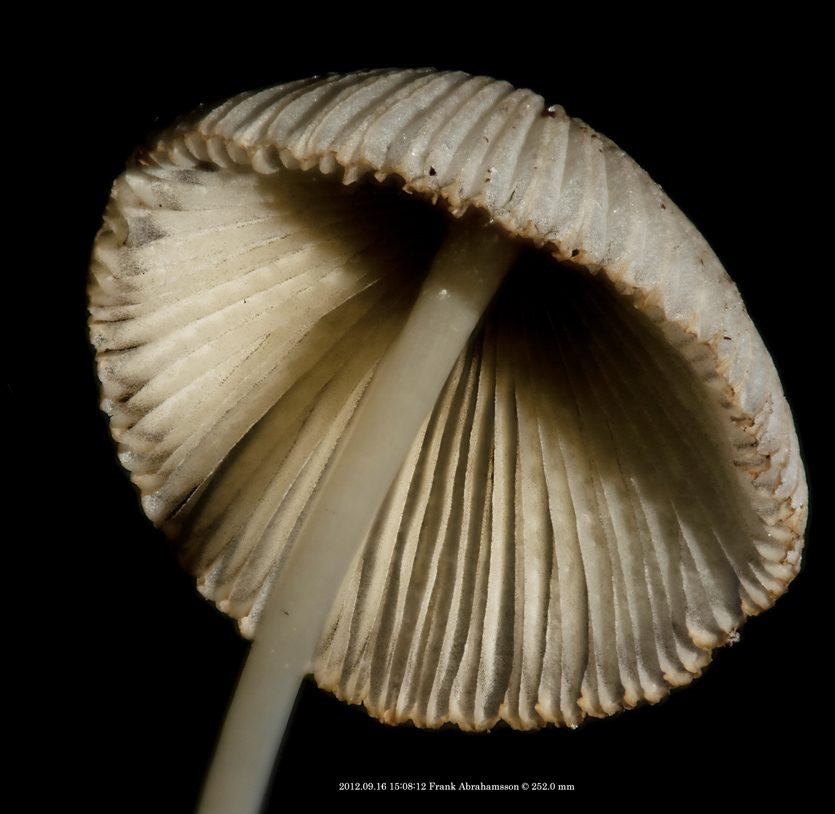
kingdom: Fungi
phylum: Basidiomycota
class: Agaricomycetes
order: Agaricales
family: Psathyrellaceae
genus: Parasola
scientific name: Parasola lactea
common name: glat hjulhat
